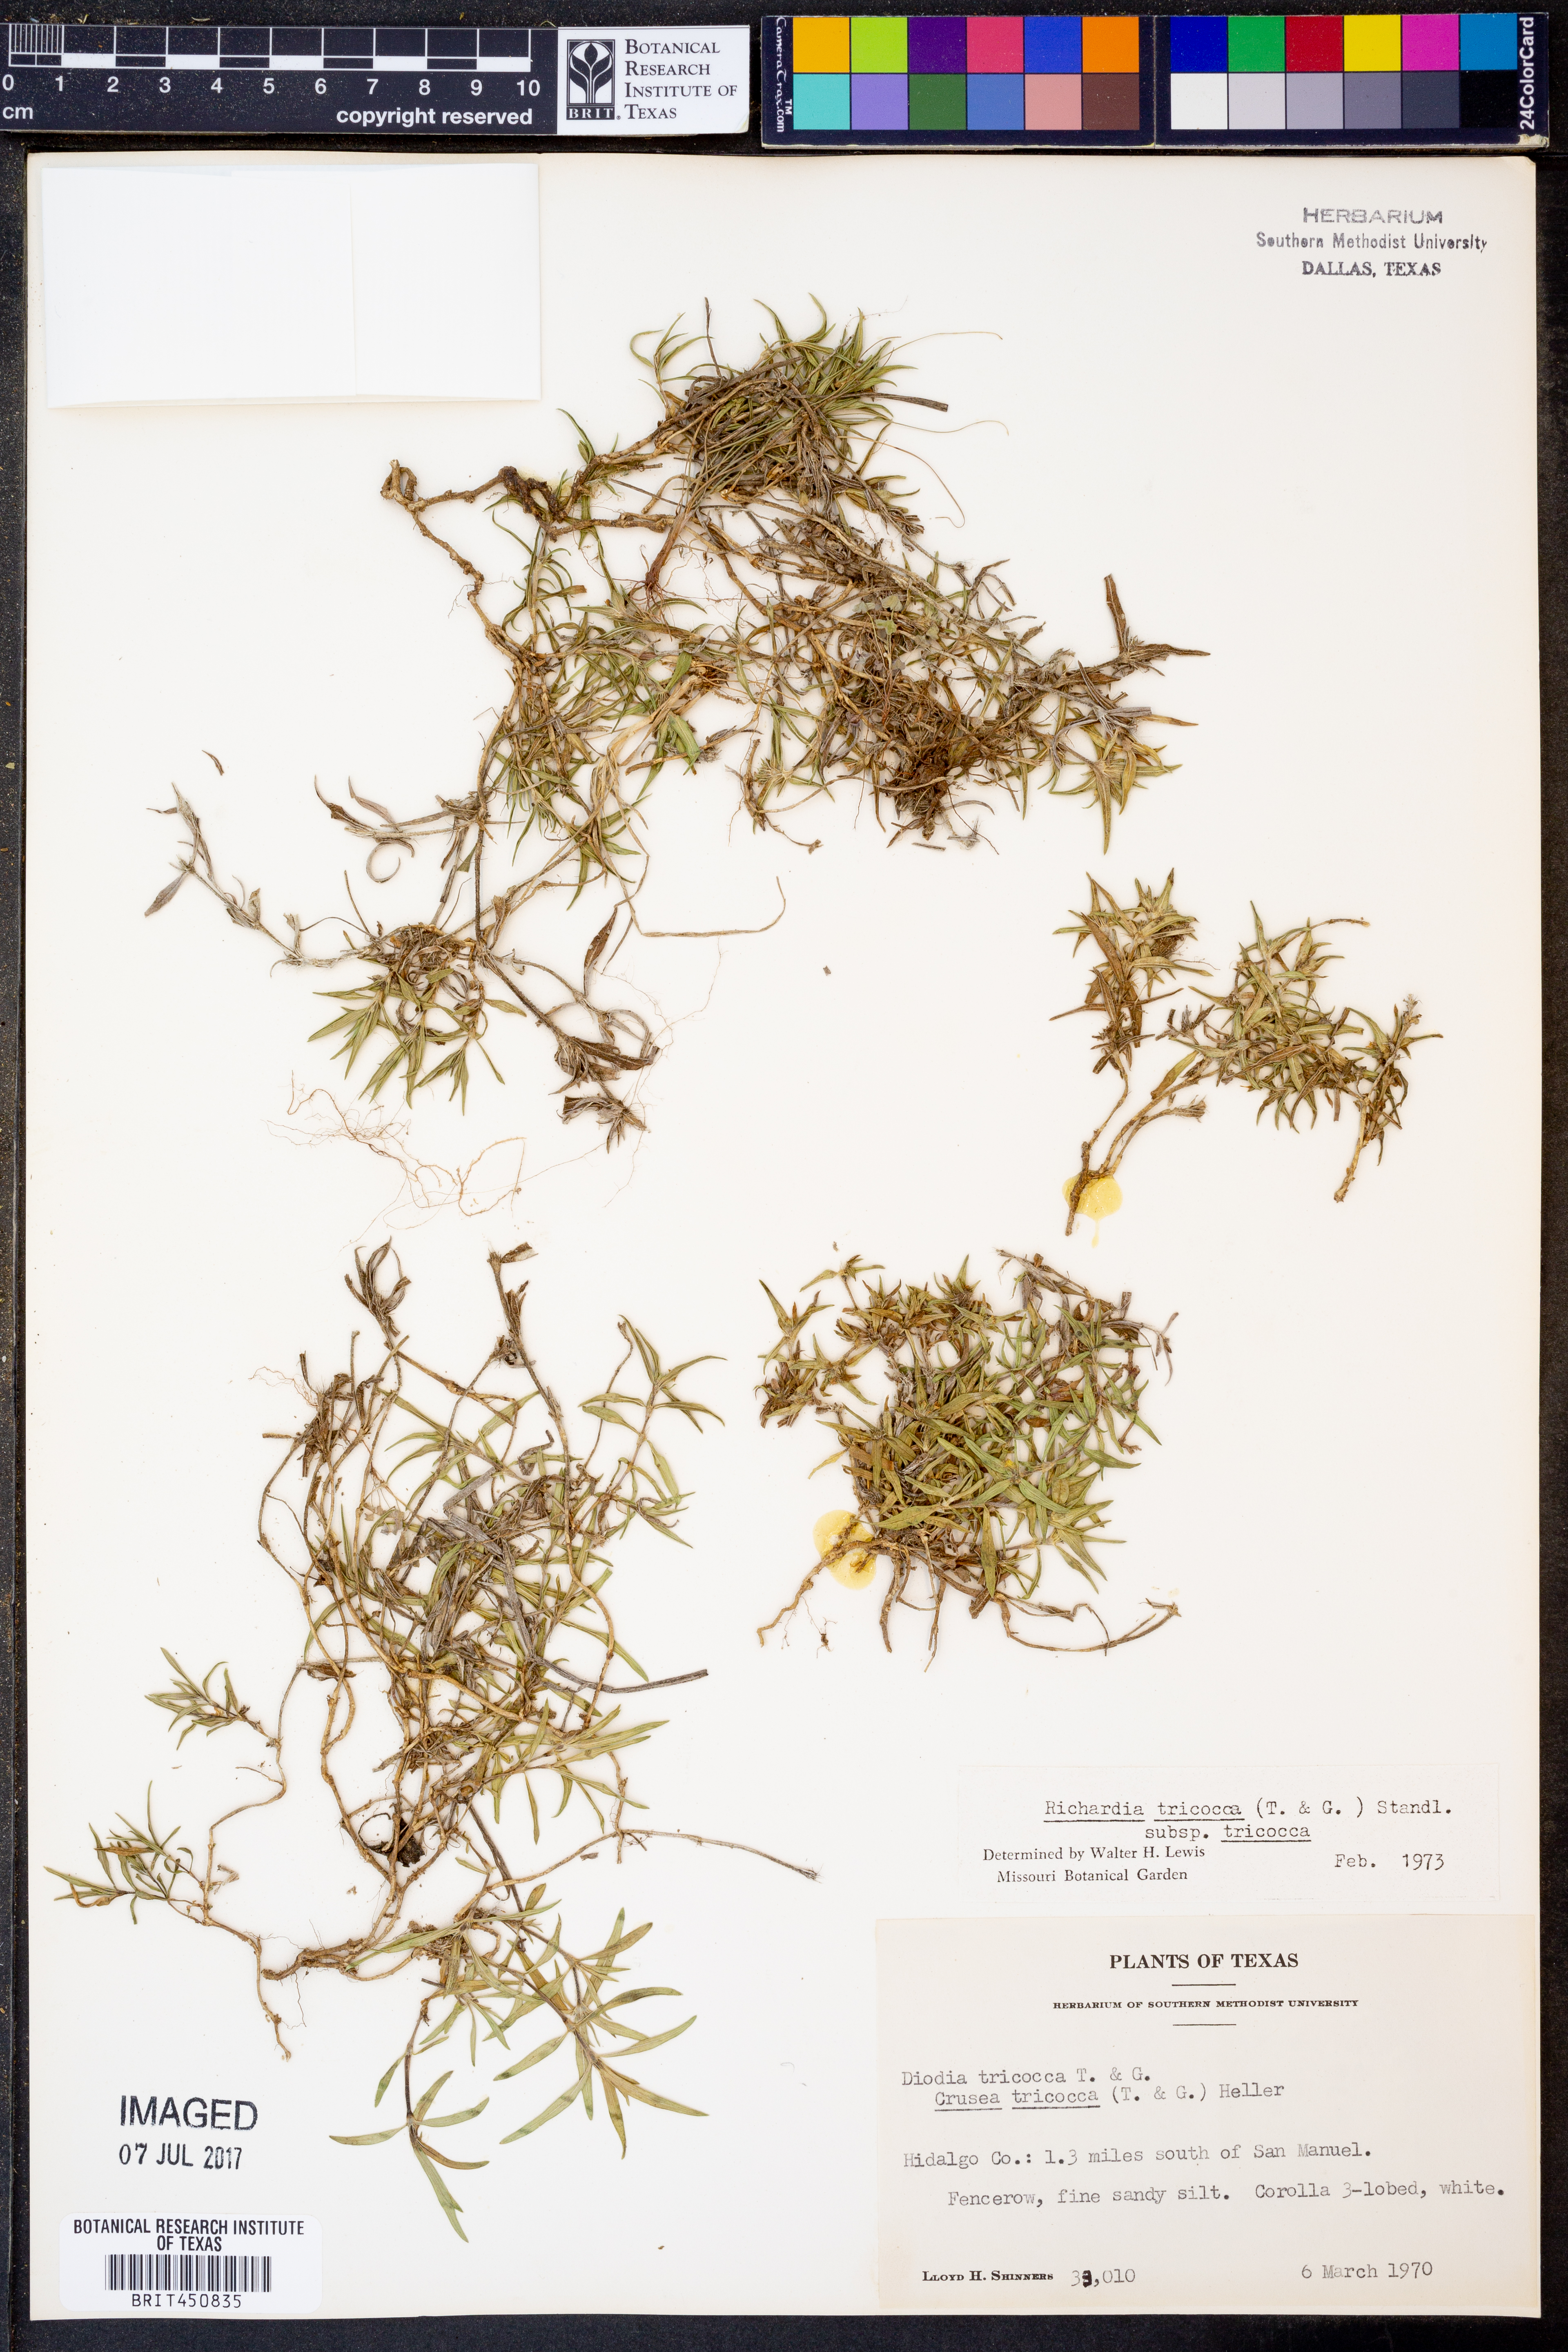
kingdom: Plantae
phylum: Tracheophyta
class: Magnoliopsida
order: Gentianales
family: Rubiaceae
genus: Richardia
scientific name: Richardia tricocca
